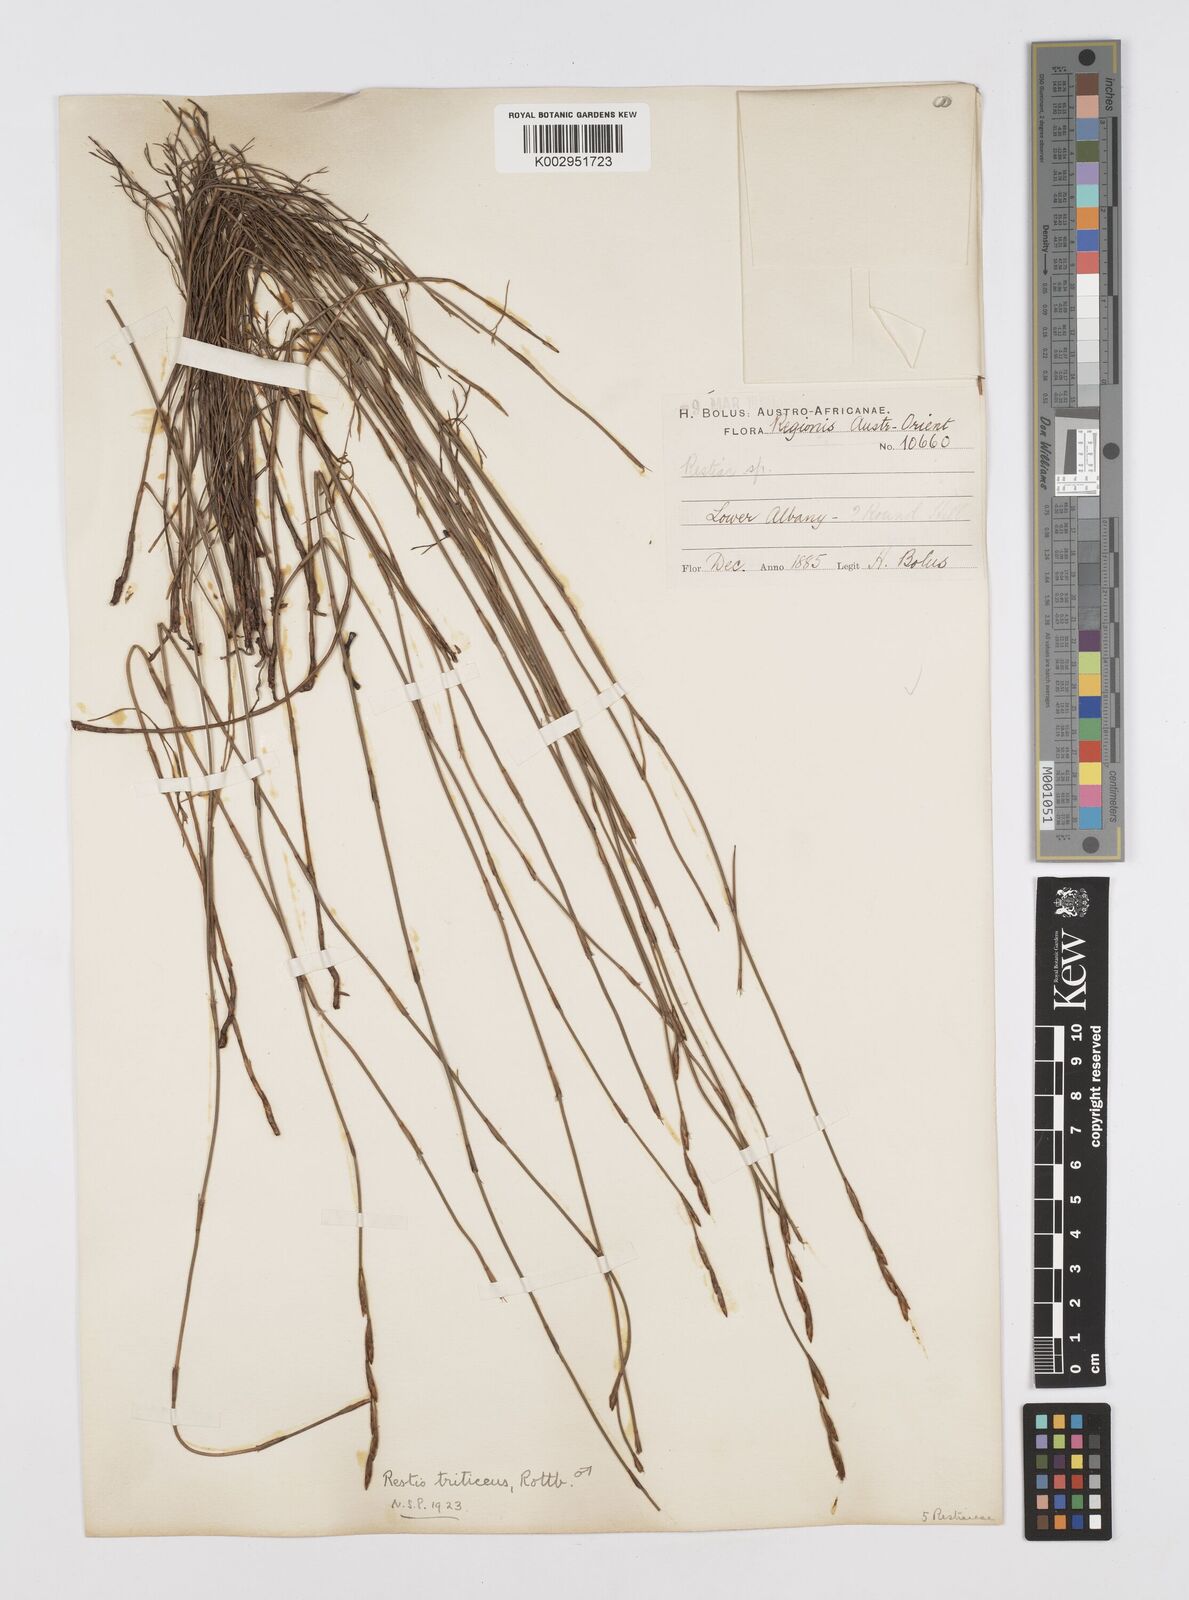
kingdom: Plantae
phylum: Tracheophyta
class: Liliopsida
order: Poales
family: Restionaceae
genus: Restio
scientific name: Restio triticeus
